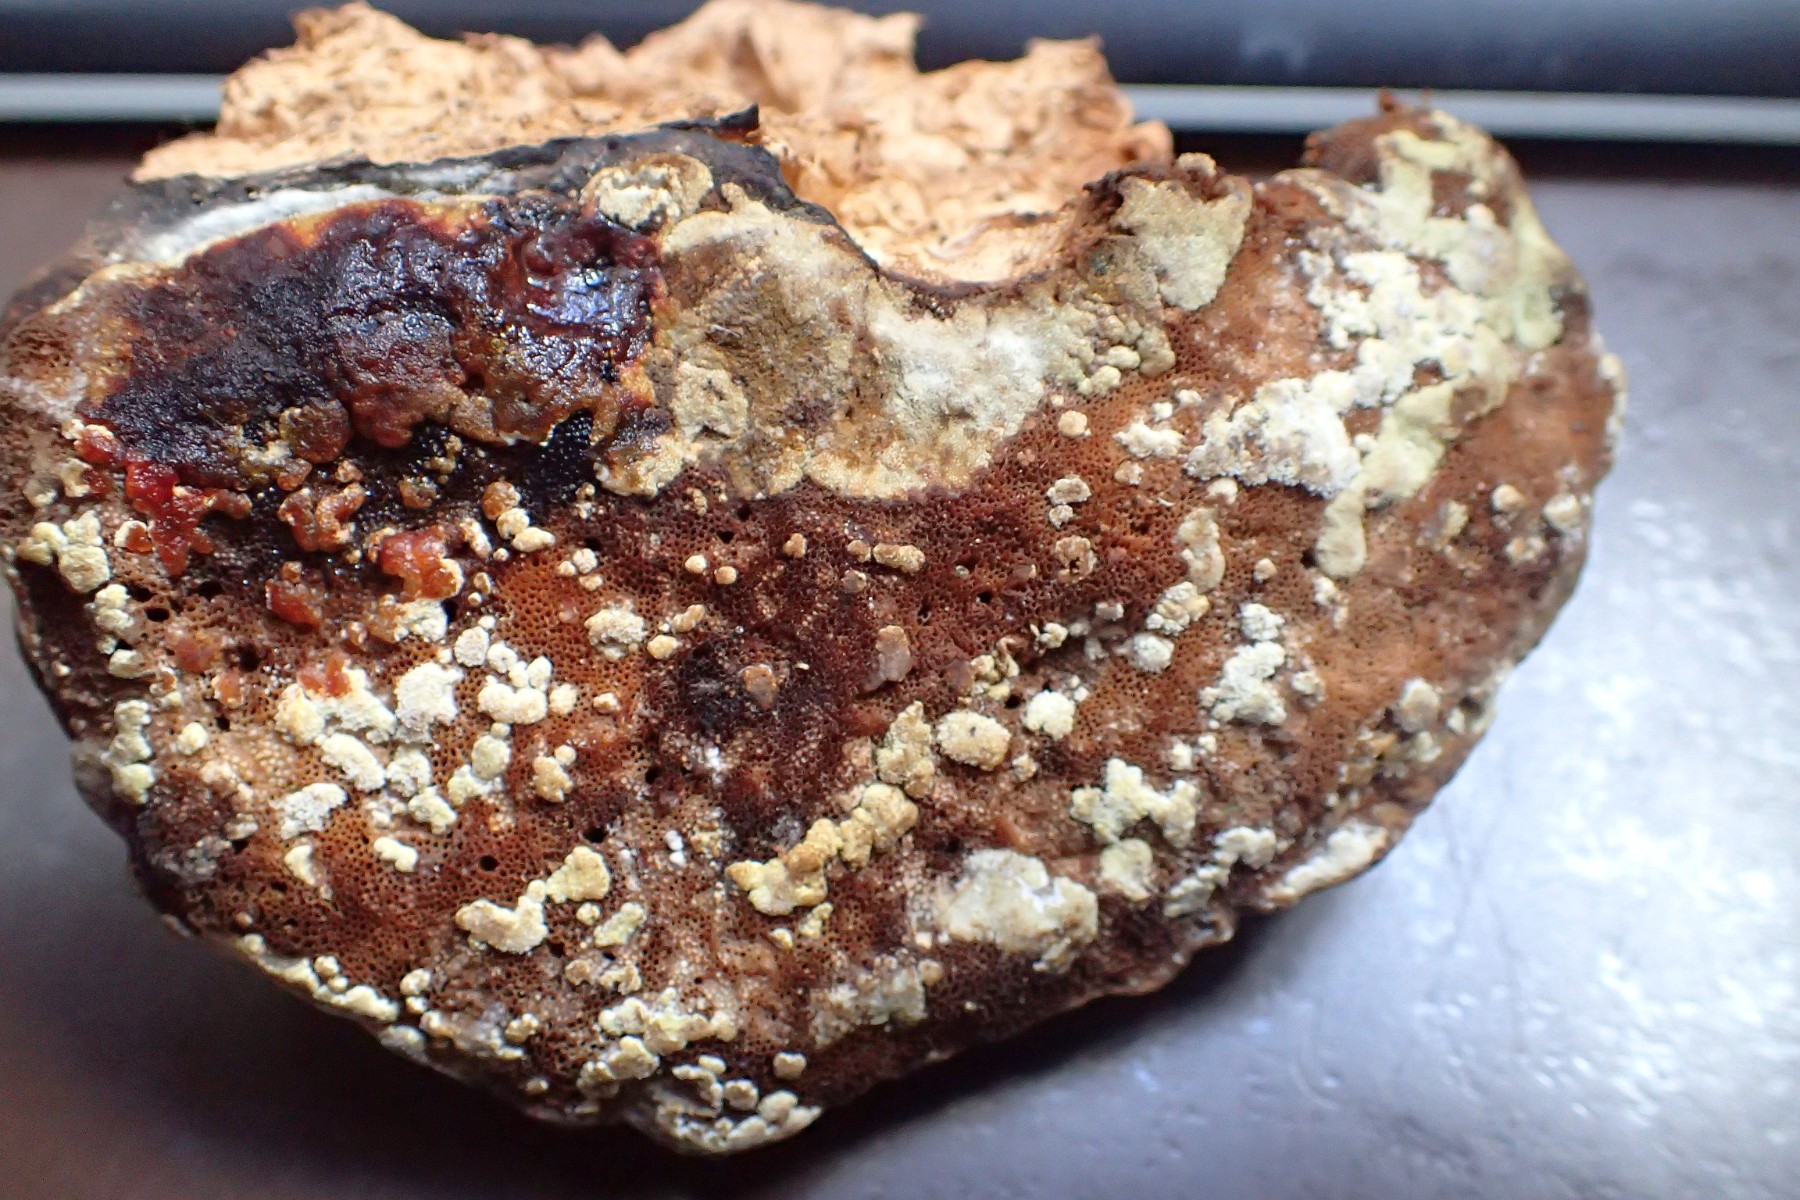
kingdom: Fungi
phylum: Ascomycota
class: Sordariomycetes
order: Hypocreales
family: Hypocreaceae
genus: Trichoderma
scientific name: Trichoderma pulvinatum
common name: snyltende kødkerne
